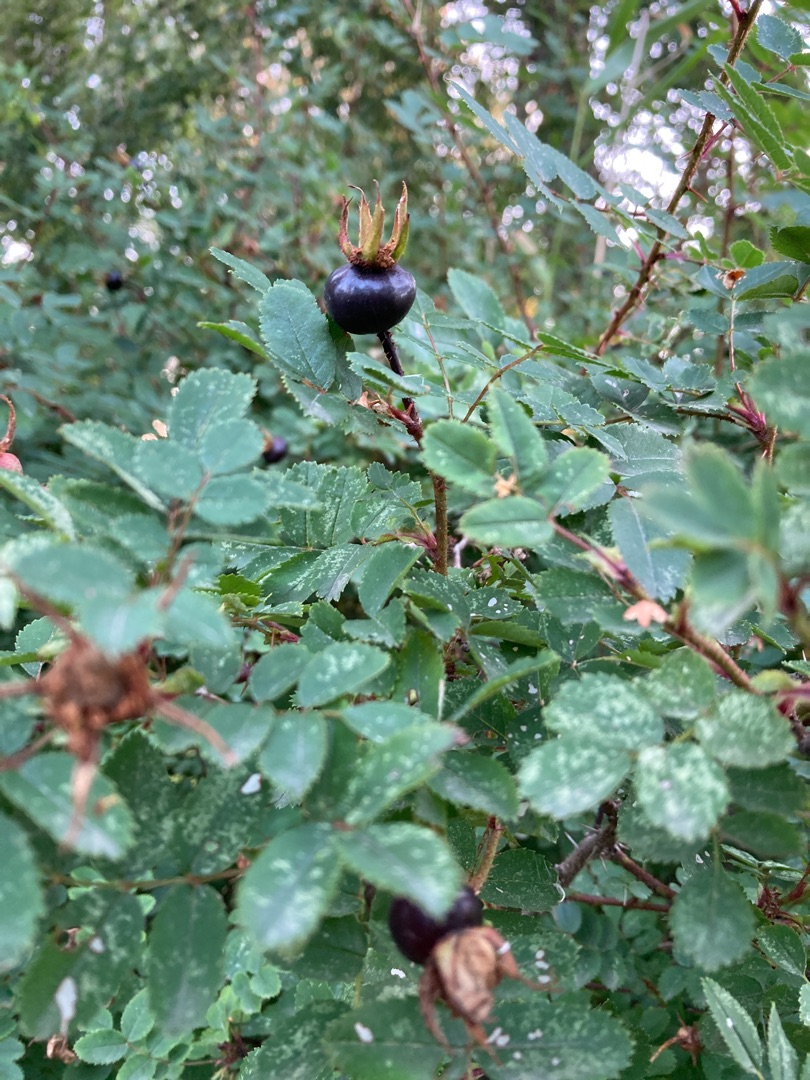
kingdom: Plantae
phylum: Tracheophyta
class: Magnoliopsida
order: Rosales
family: Rosaceae
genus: Rosa
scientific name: Rosa spinosissima
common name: Klit-rose
